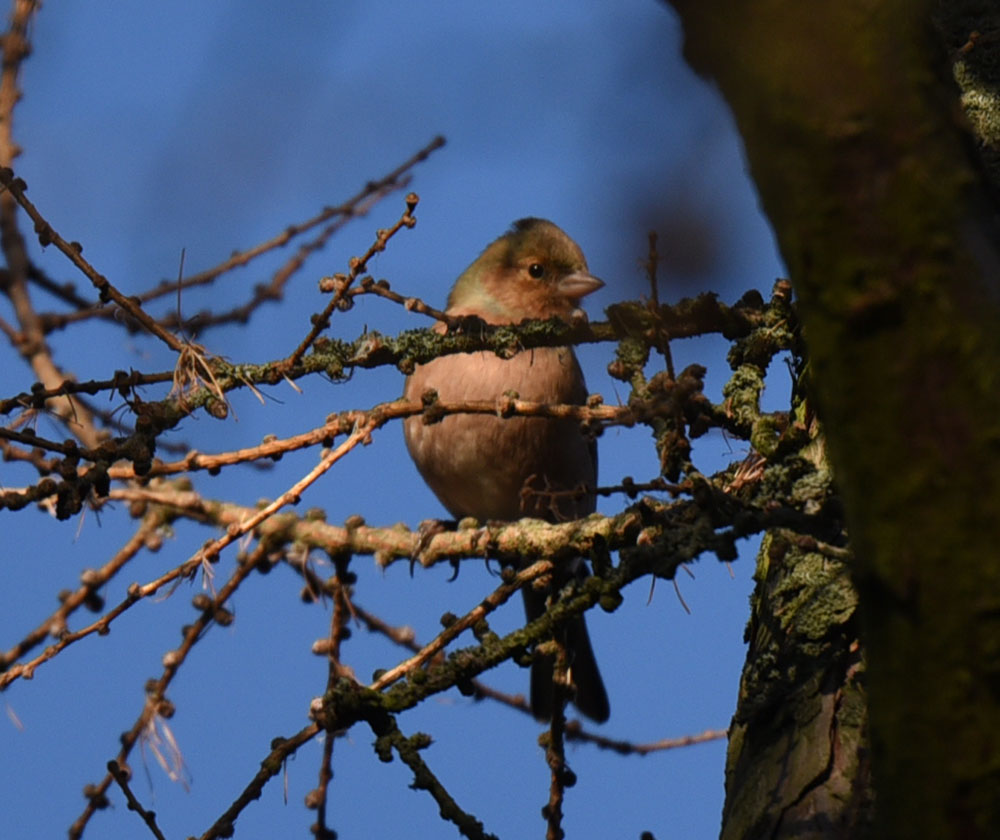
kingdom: Animalia
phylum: Chordata
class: Aves
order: Passeriformes
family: Fringillidae
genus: Fringilla
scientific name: Fringilla coelebs
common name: Common chaffinch
